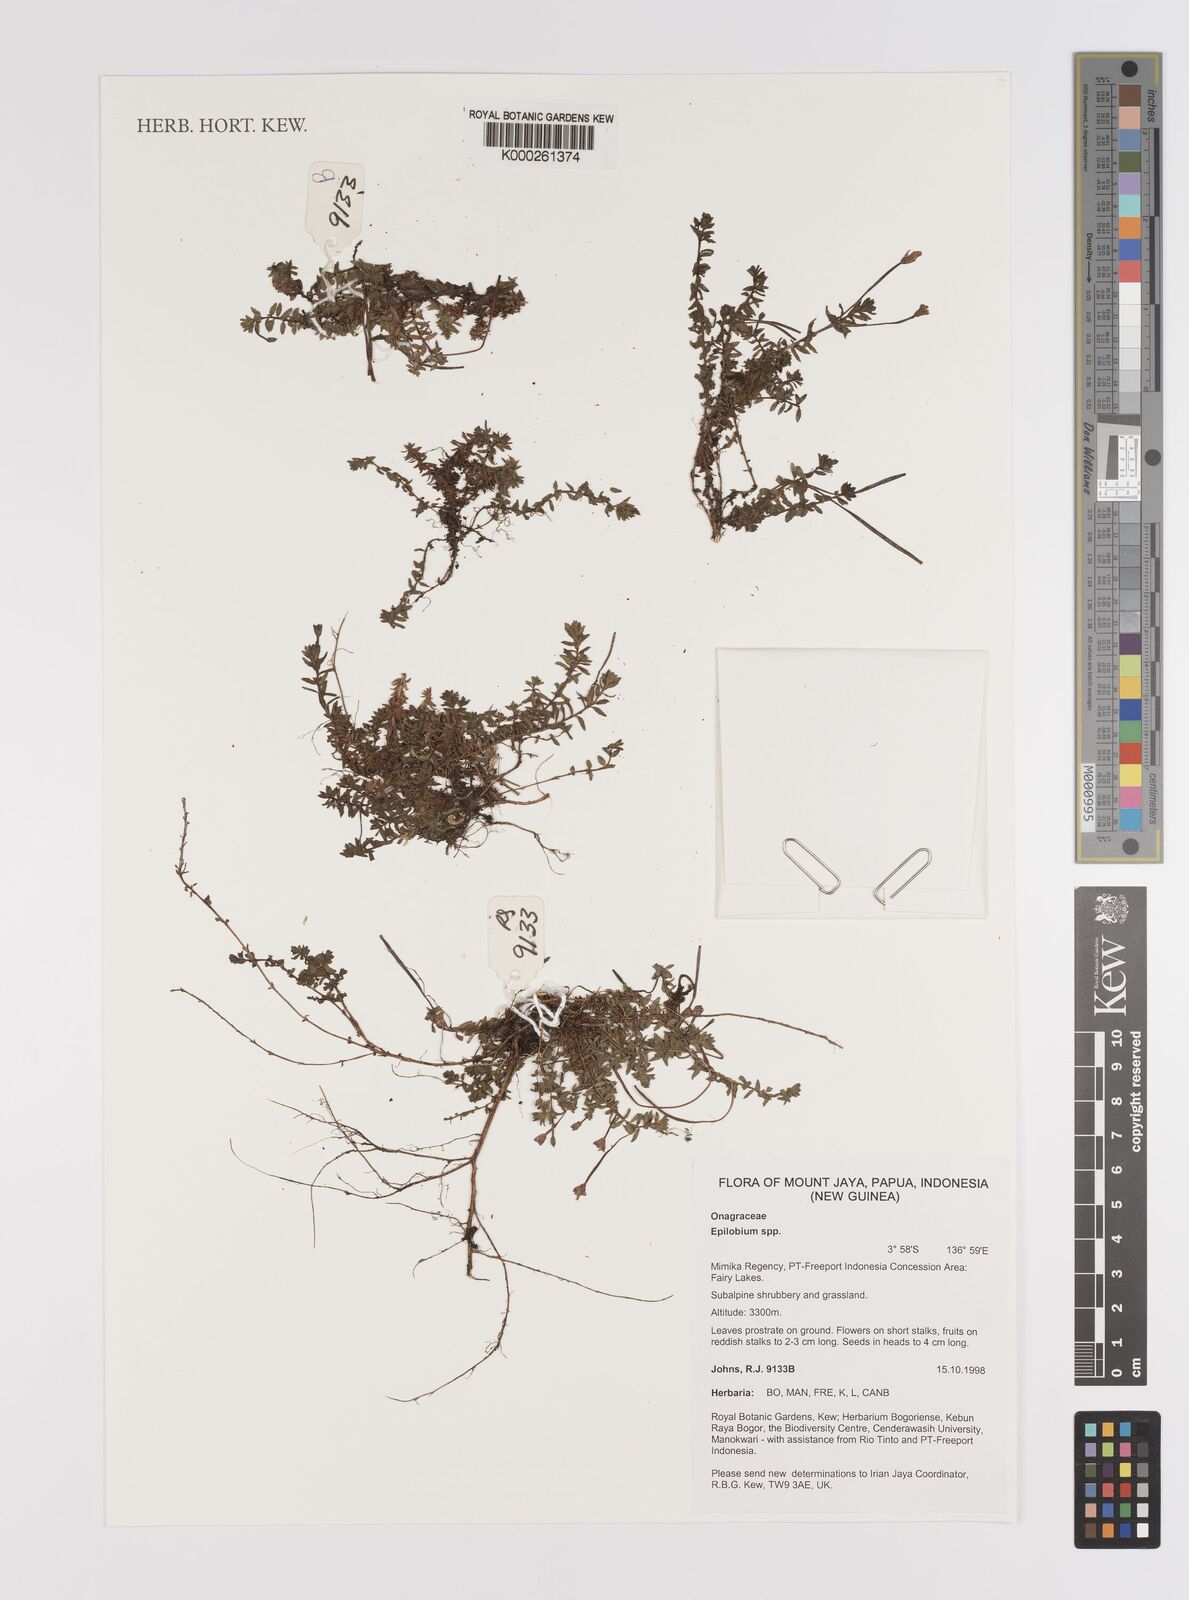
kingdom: Plantae
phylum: Tracheophyta
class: Magnoliopsida
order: Myrtales
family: Onagraceae
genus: Epilobium
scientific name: Epilobium
